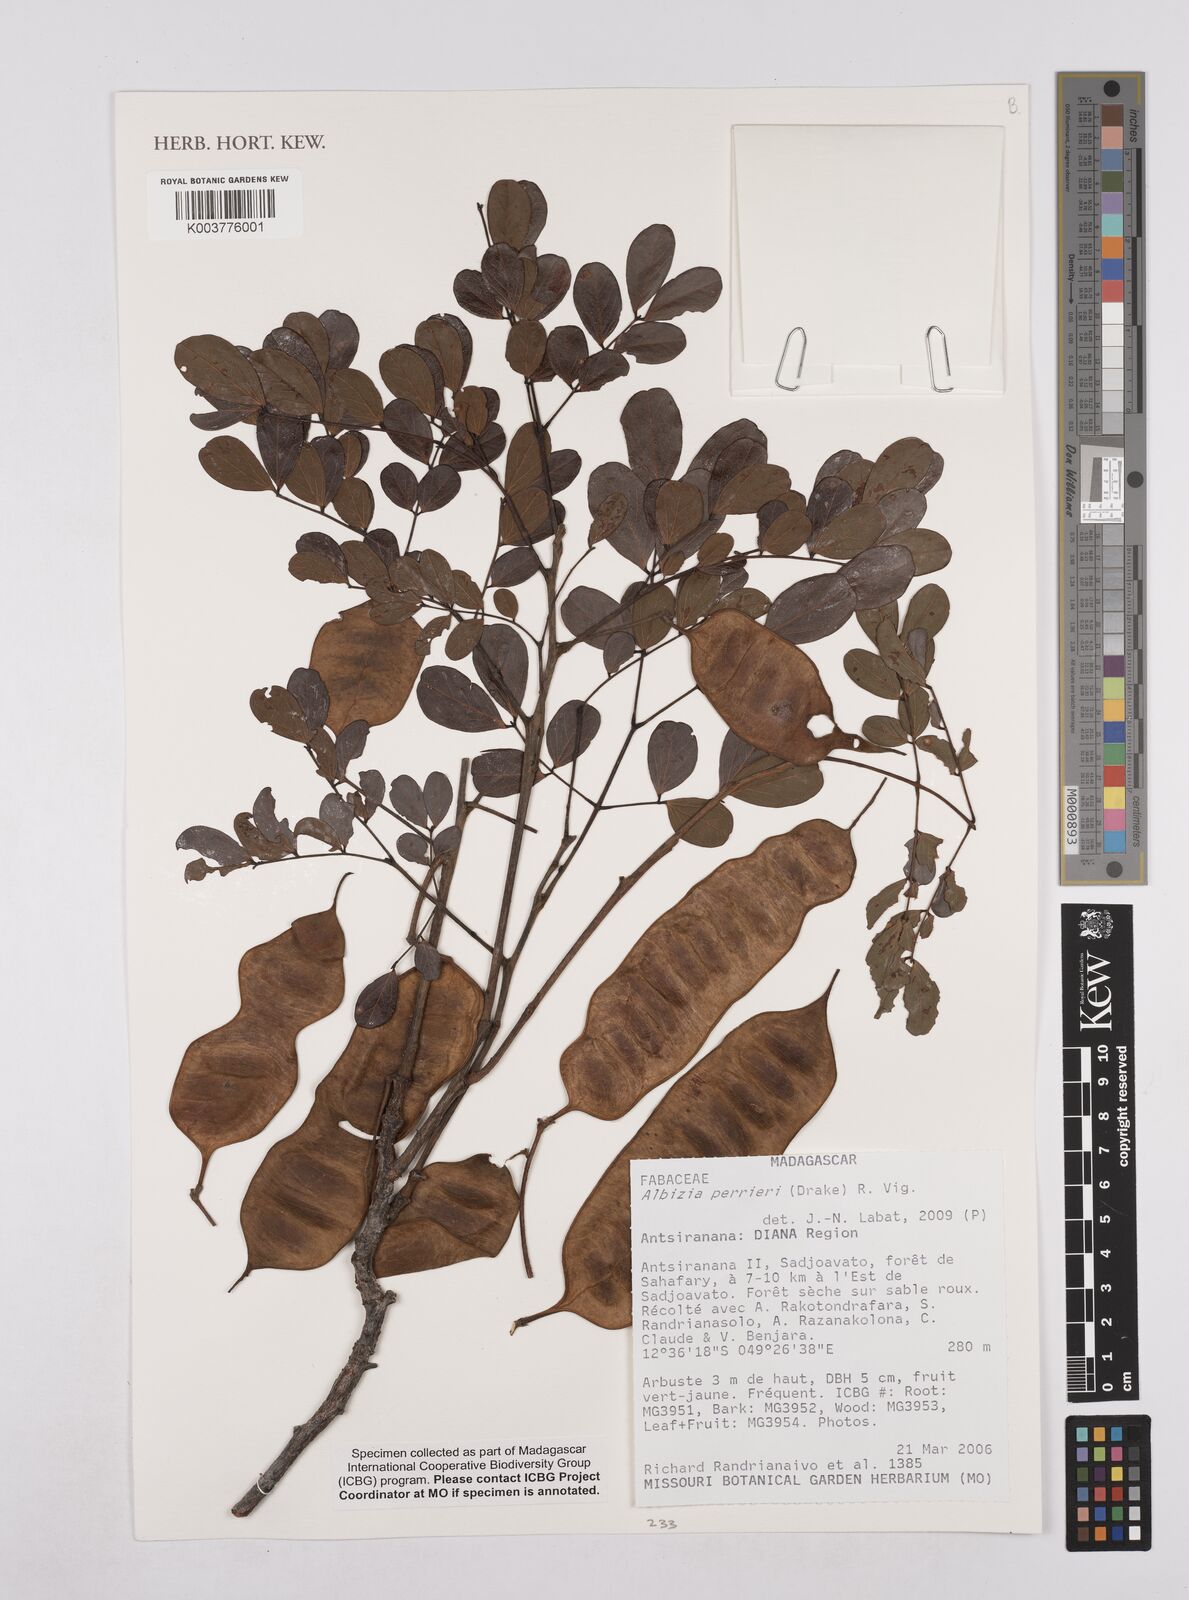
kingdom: Plantae
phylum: Tracheophyta
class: Magnoliopsida
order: Fabales
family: Fabaceae
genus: Albizia
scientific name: Albizia perrieri
